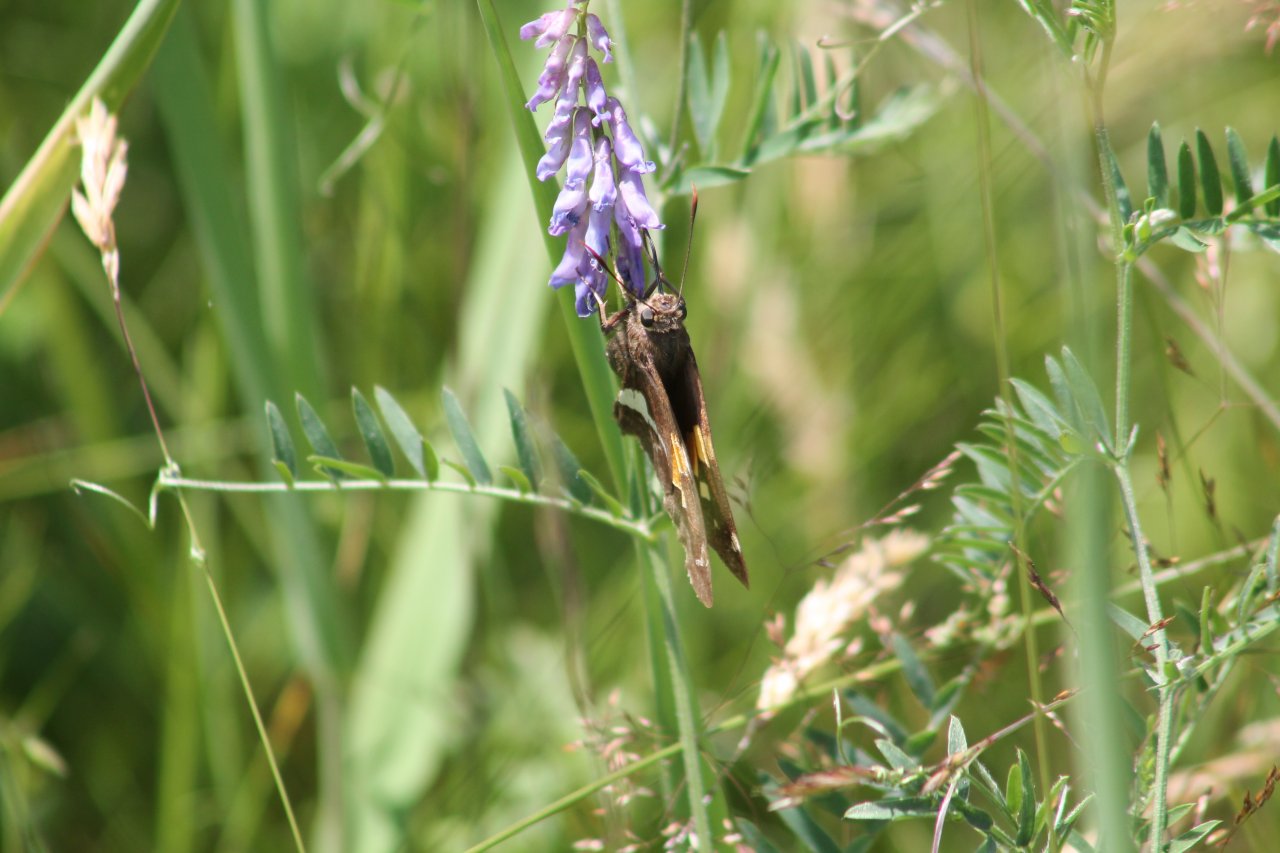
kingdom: Animalia
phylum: Arthropoda
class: Insecta
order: Lepidoptera
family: Hesperiidae
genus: Epargyreus
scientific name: Epargyreus clarus
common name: Silver-spotted Skipper
